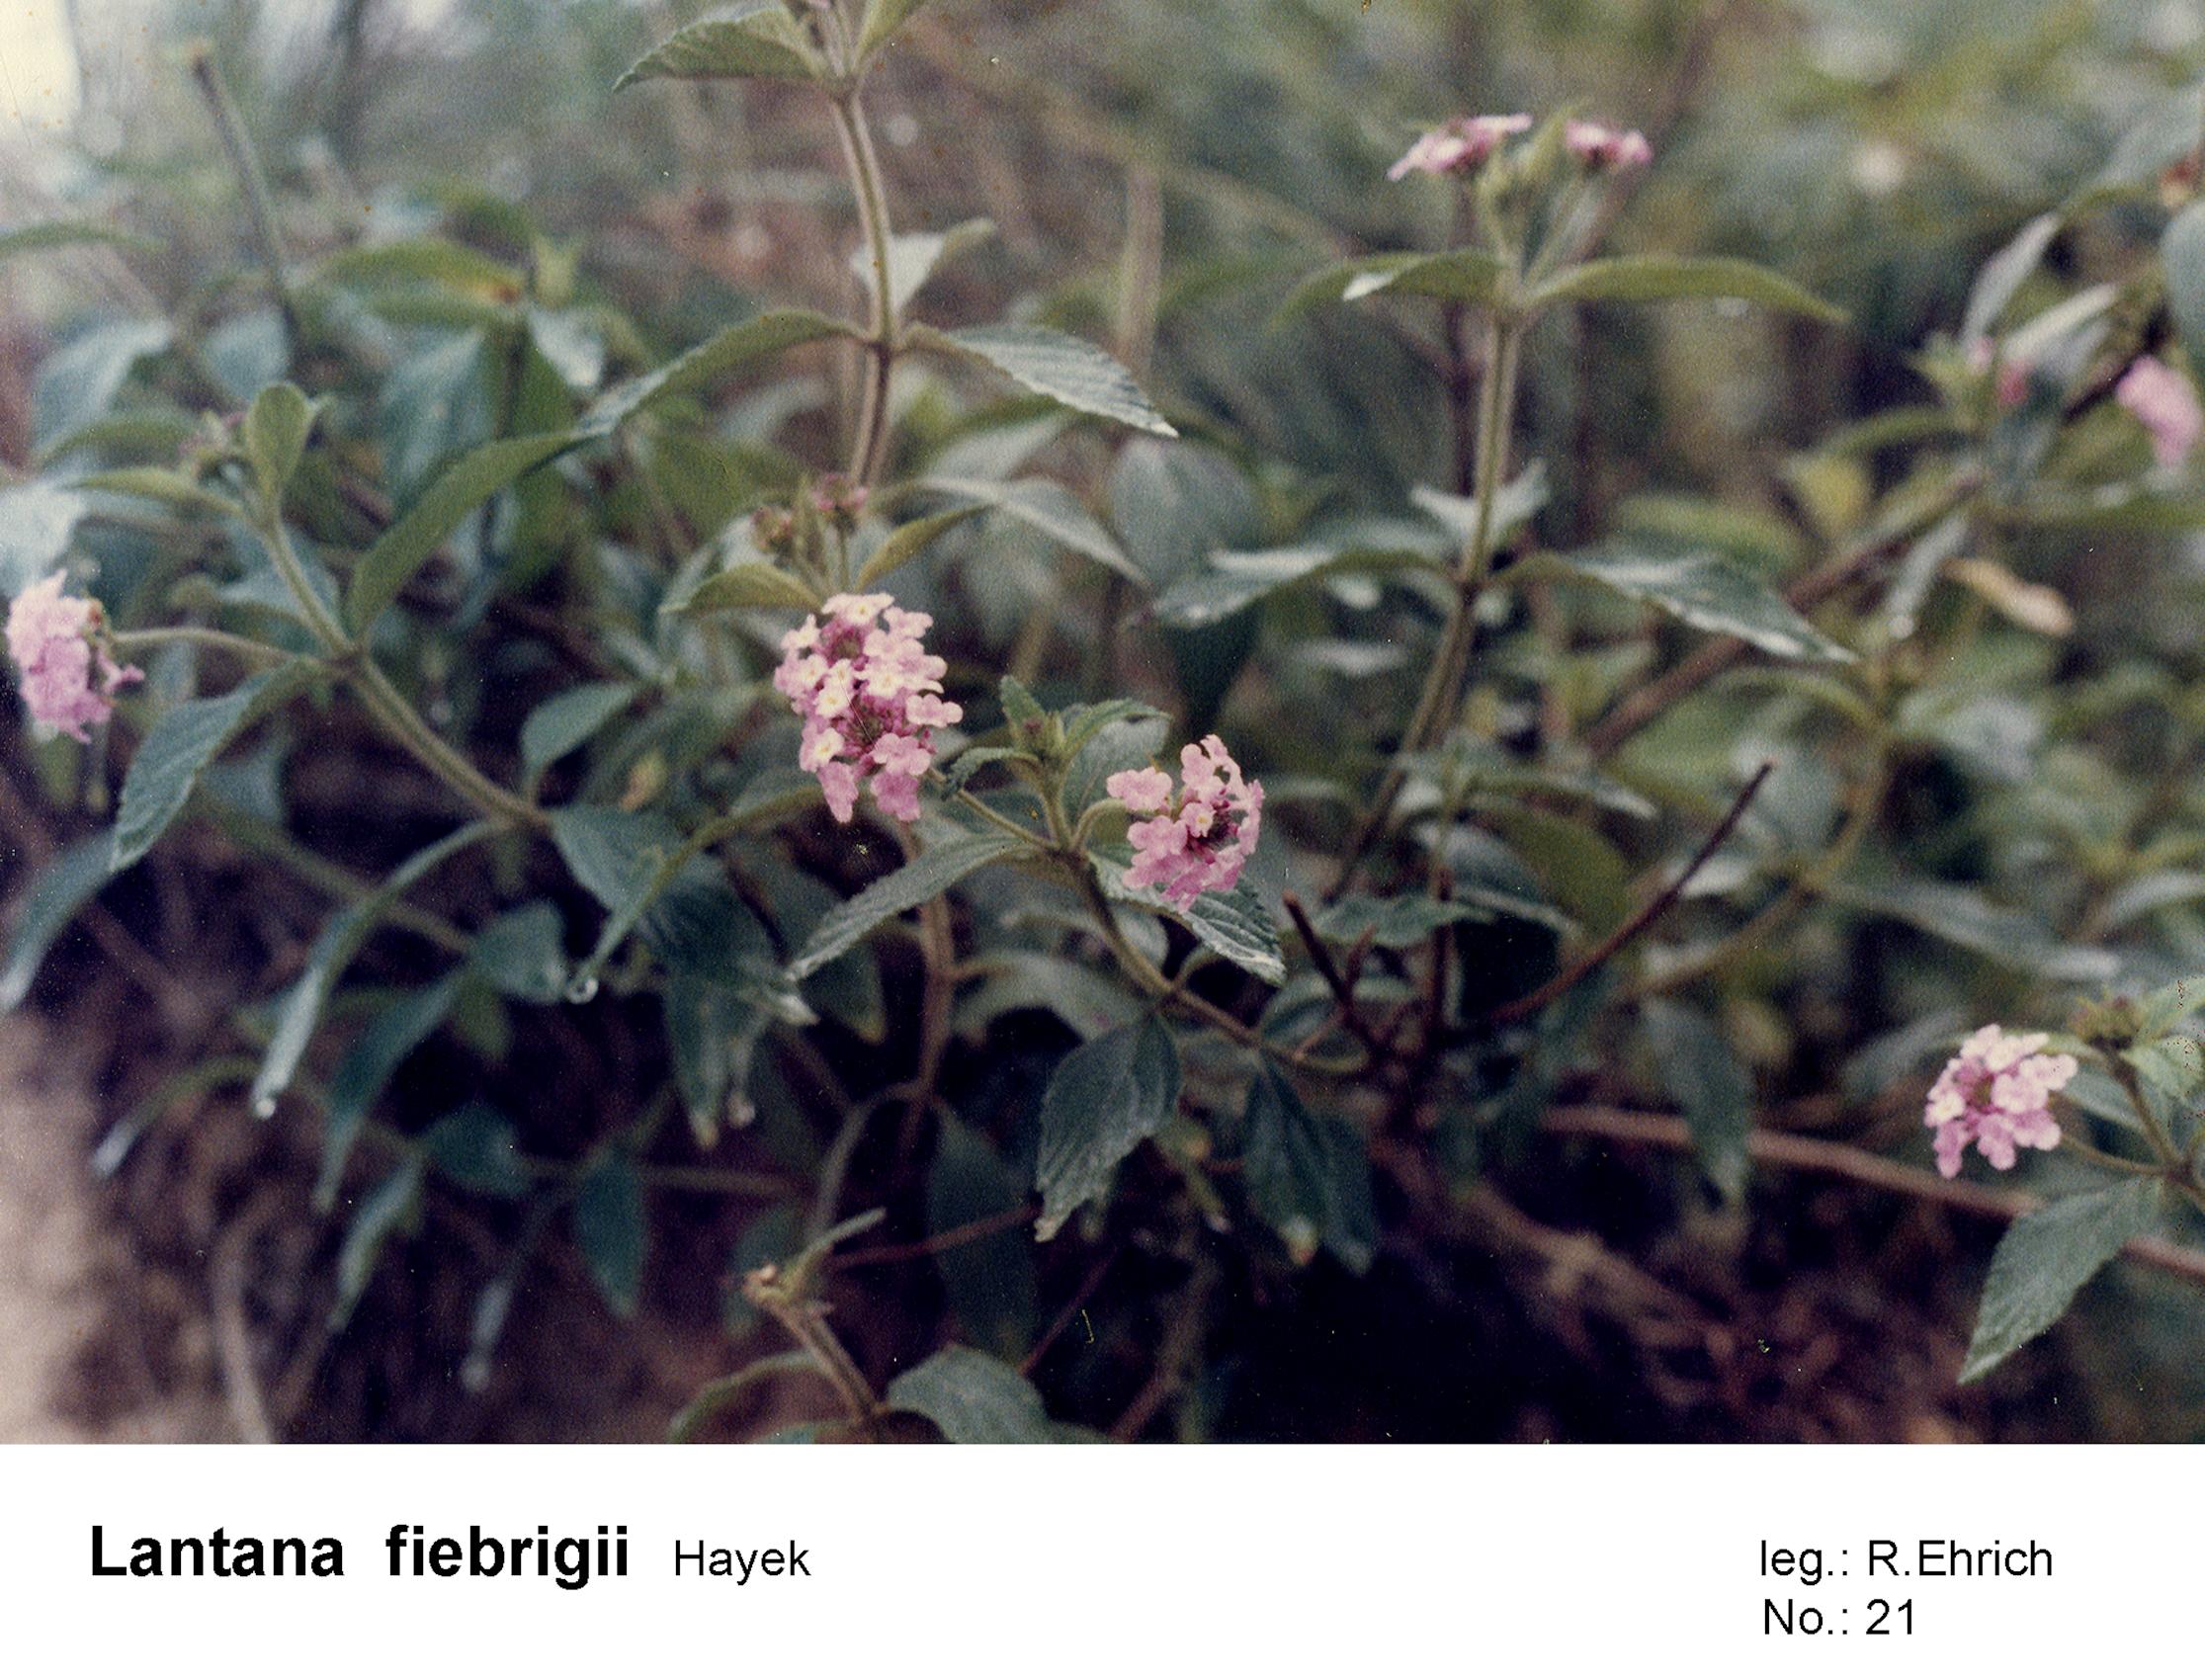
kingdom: Plantae
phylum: Tracheophyta
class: Magnoliopsida
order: Lamiales
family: Verbenaceae
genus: Lantana
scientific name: Lantana trifolia
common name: Sweet-sage
